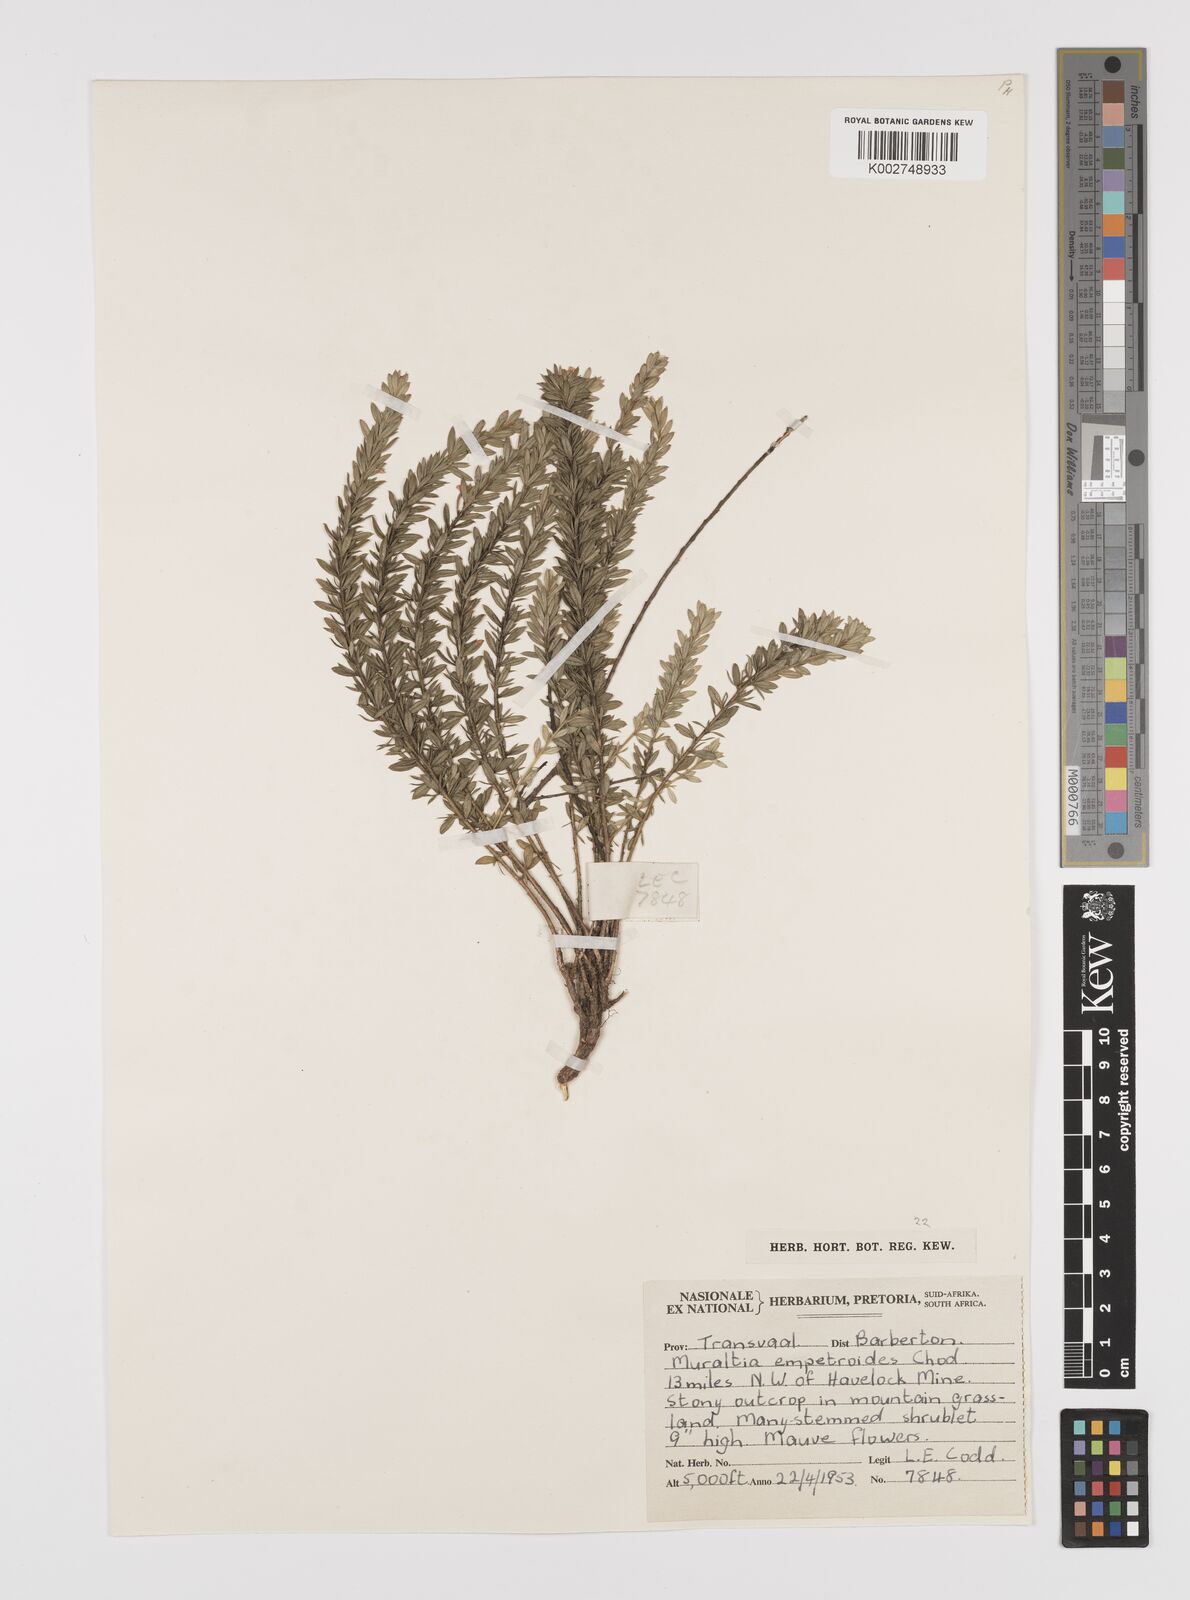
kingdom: Plantae
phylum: Tracheophyta
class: Magnoliopsida
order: Fabales
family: Polygalaceae
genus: Muraltia
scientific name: Muraltia empetroides
